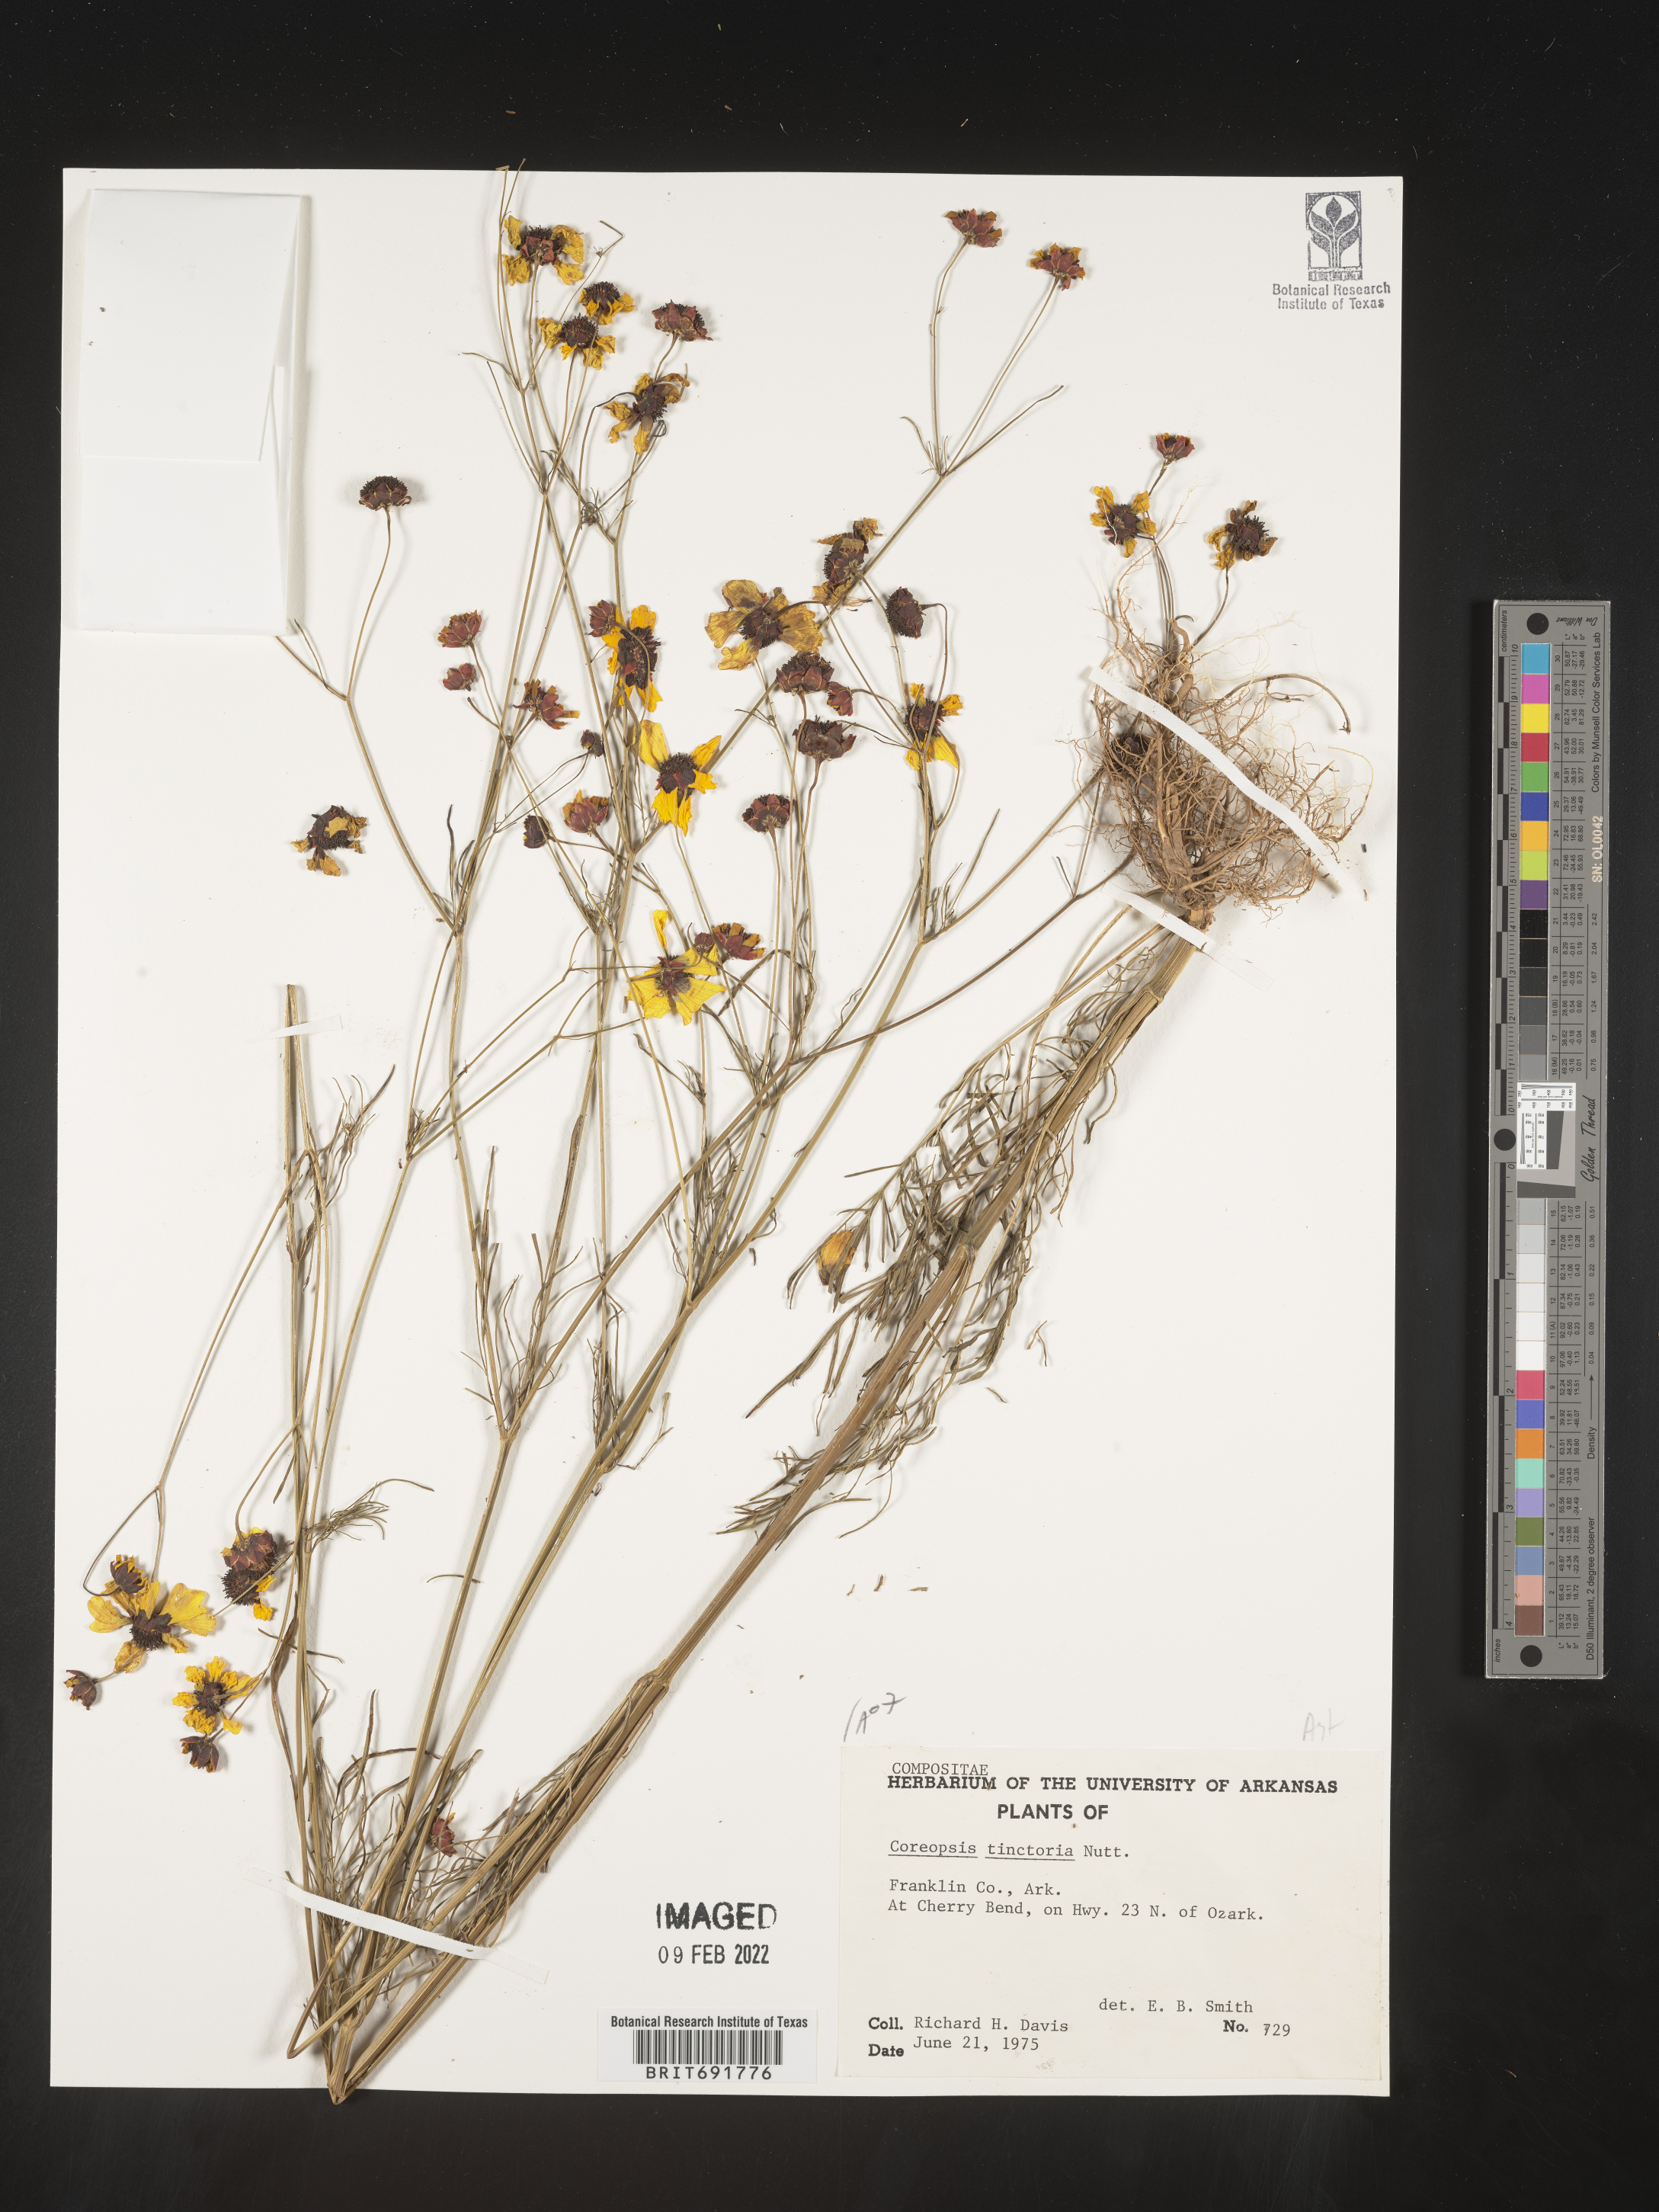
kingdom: Plantae
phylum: Tracheophyta
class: Magnoliopsida
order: Asterales
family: Asteraceae
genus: Coreopsis
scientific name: Coreopsis tinctoria
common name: Garden tickseed
